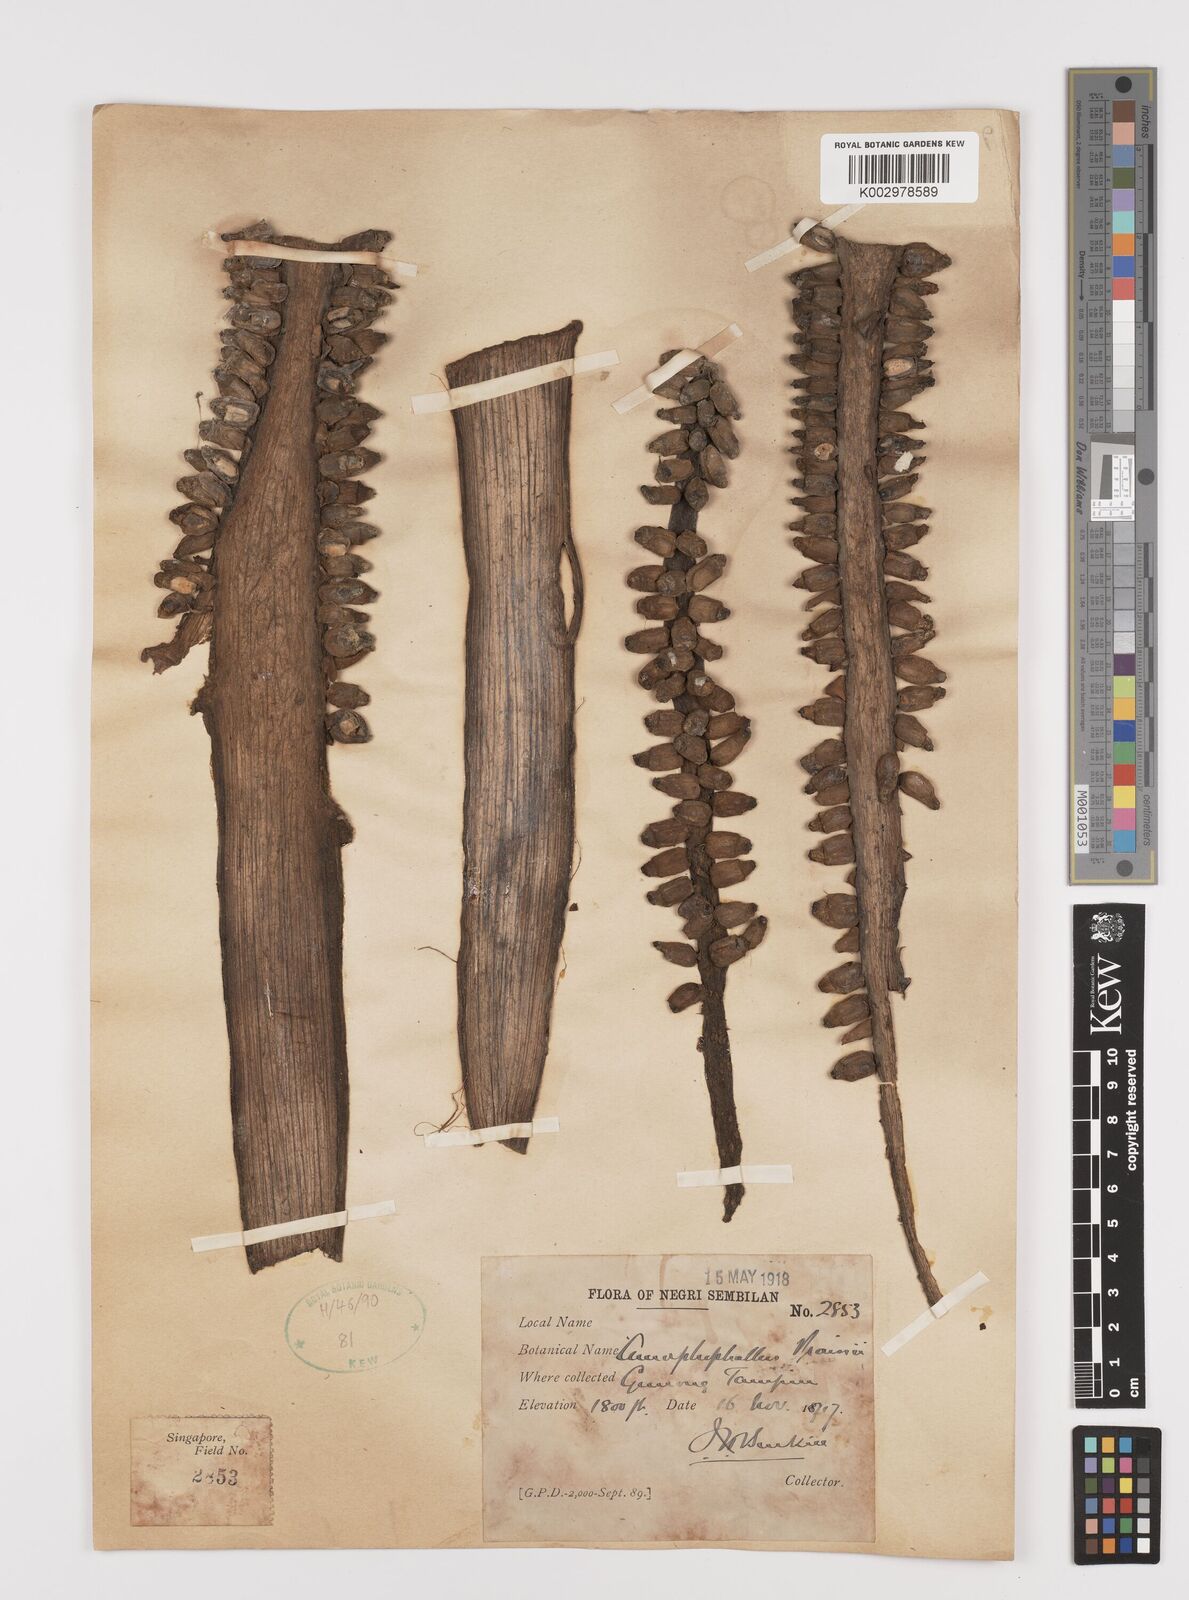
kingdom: Plantae
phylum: Tracheophyta
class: Liliopsida
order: Alismatales
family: Araceae
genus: Amorphophallus
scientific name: Amorphophallus prainii
